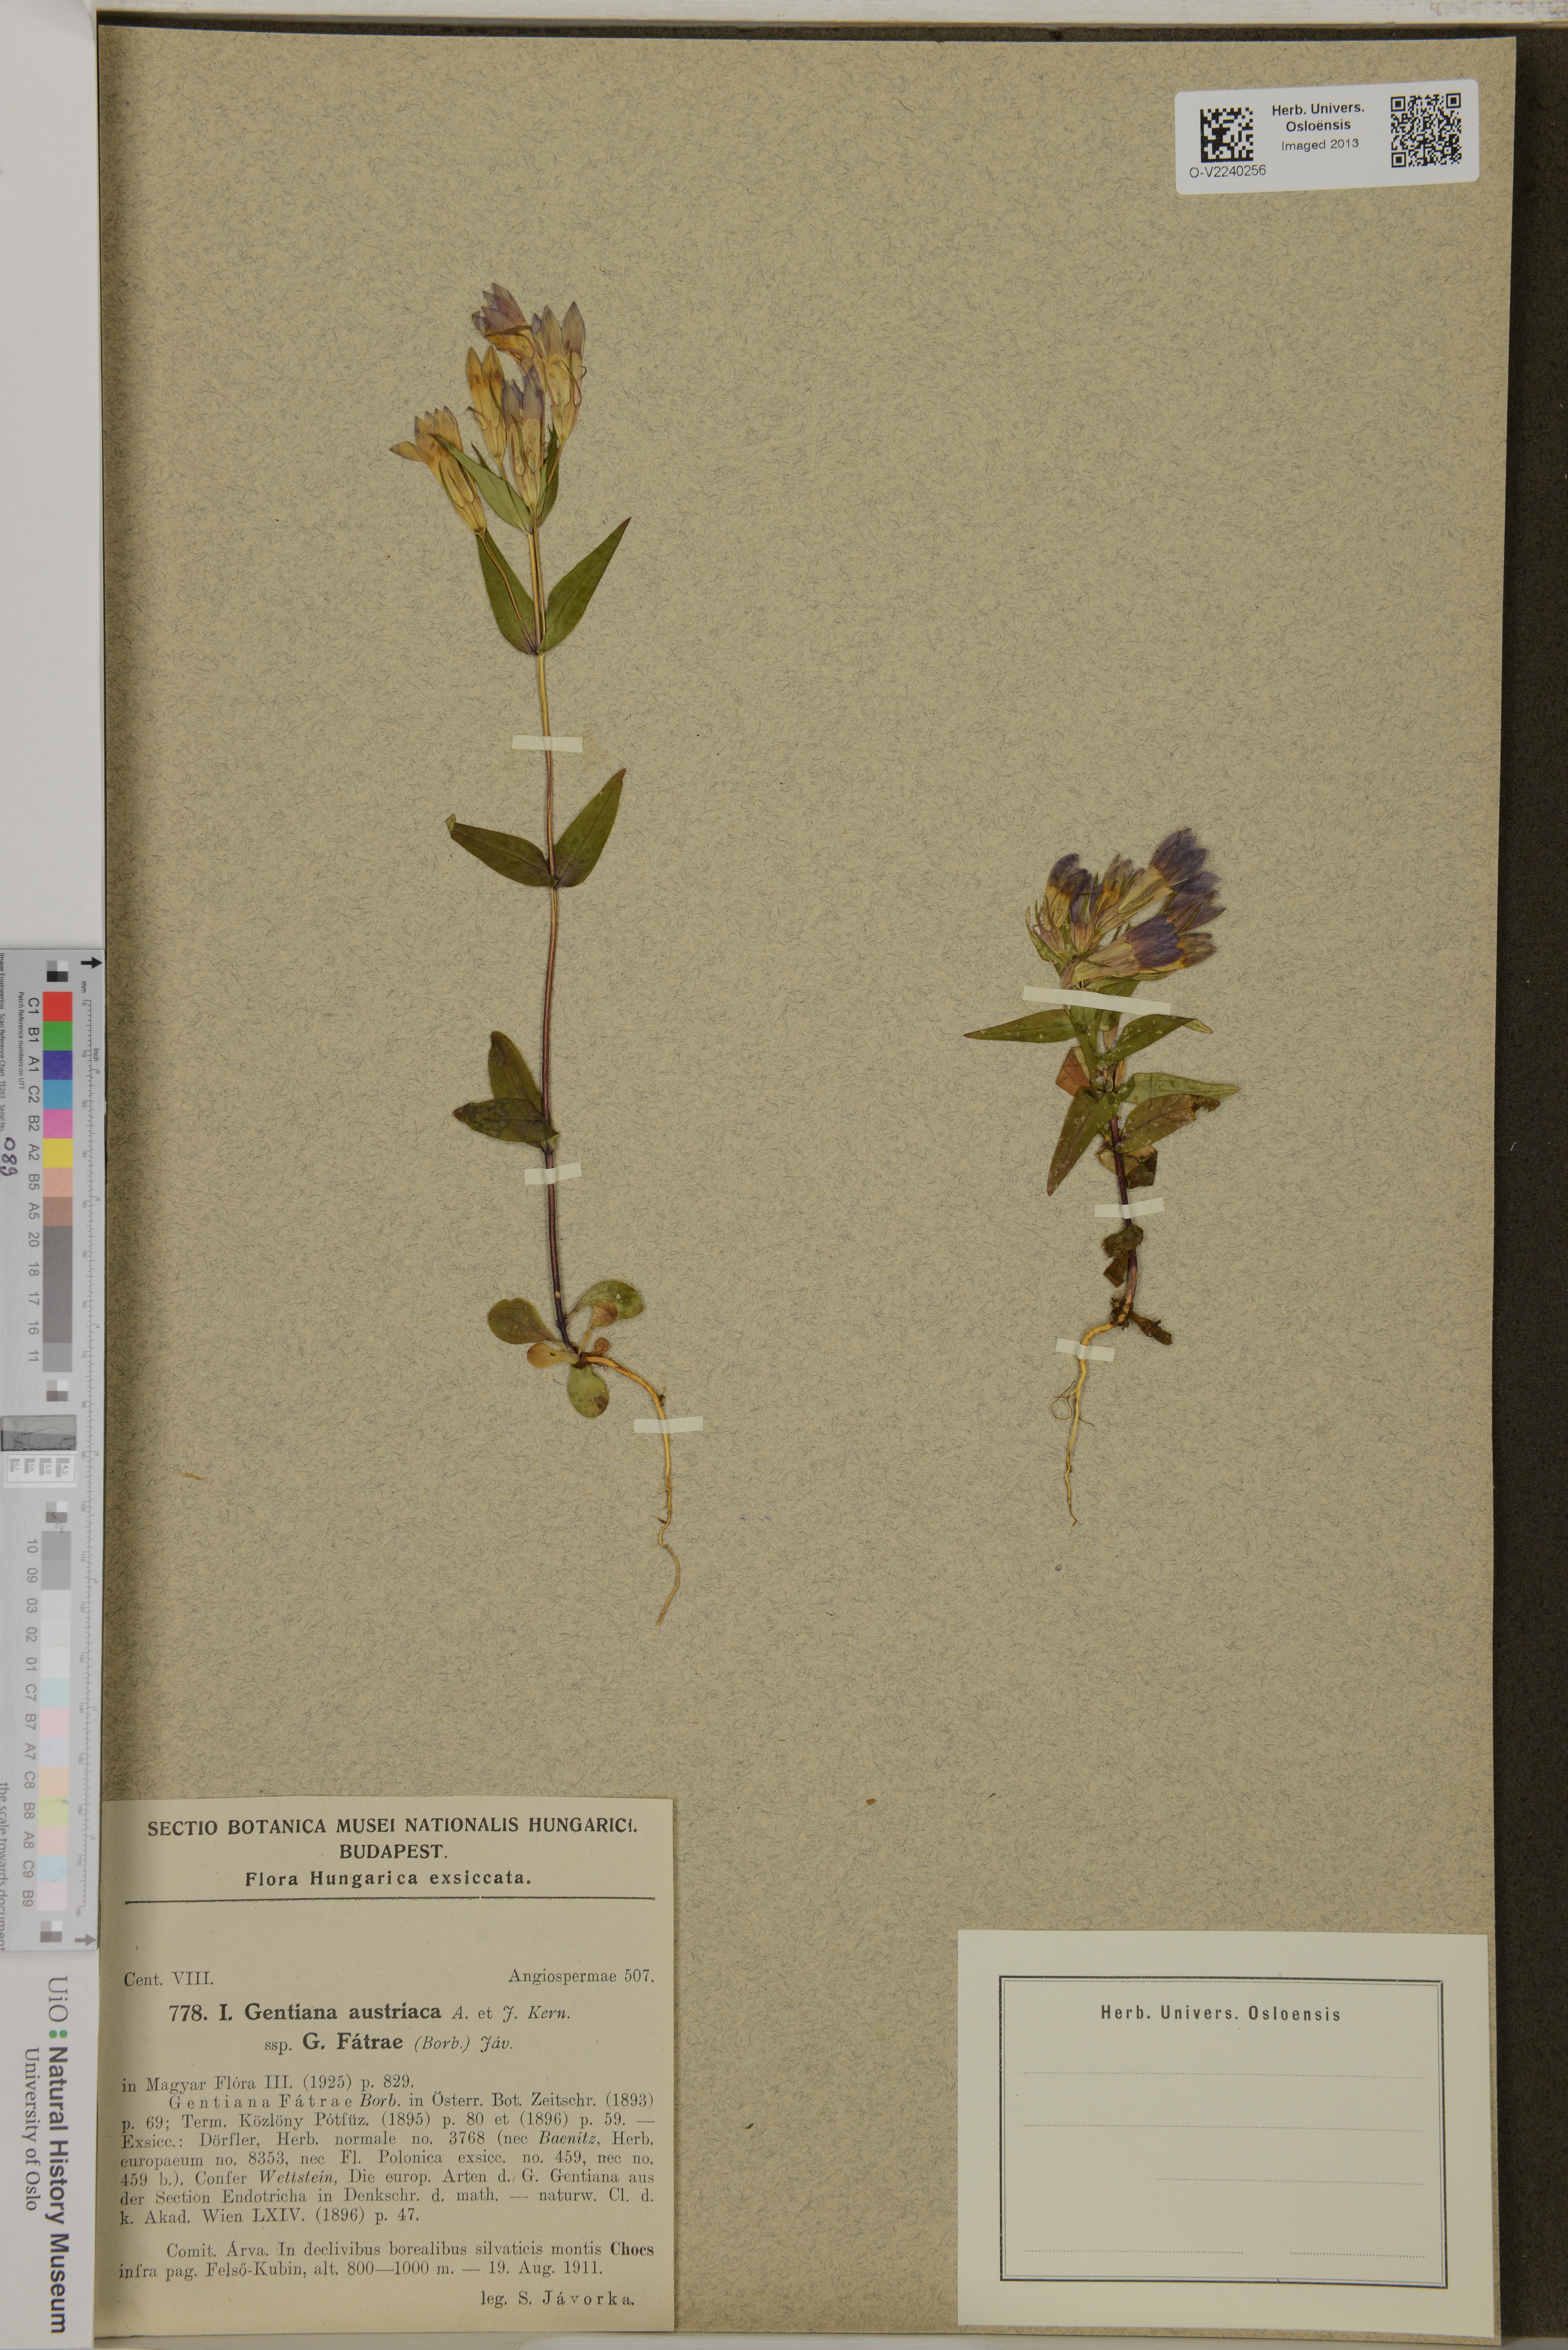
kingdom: Plantae
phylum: Tracheophyta
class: Magnoliopsida
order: Gentianales
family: Gentianaceae
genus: Gentianella
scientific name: Gentianella austriaca
